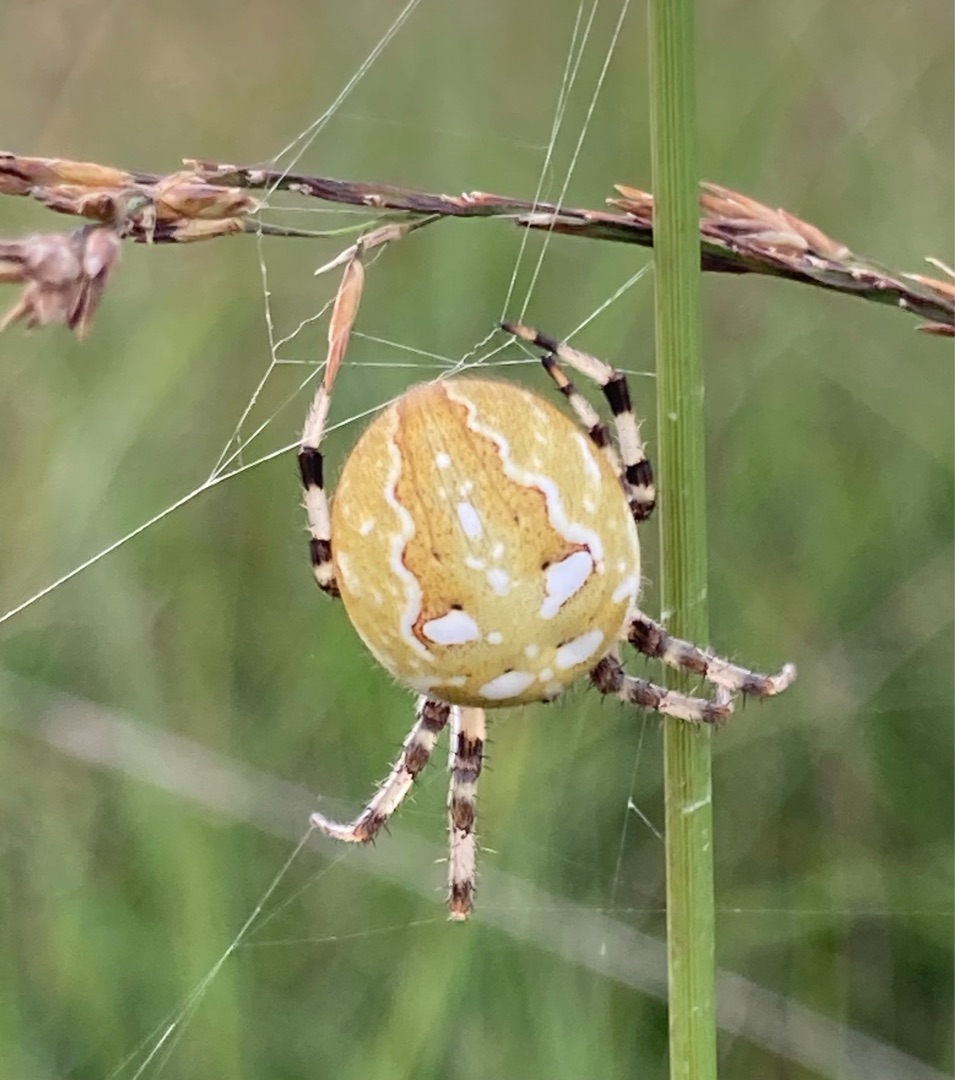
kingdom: Animalia
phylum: Arthropoda
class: Arachnida
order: Araneae
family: Araneidae
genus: Araneus
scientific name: Araneus quadratus
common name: Kvadratedderkop
